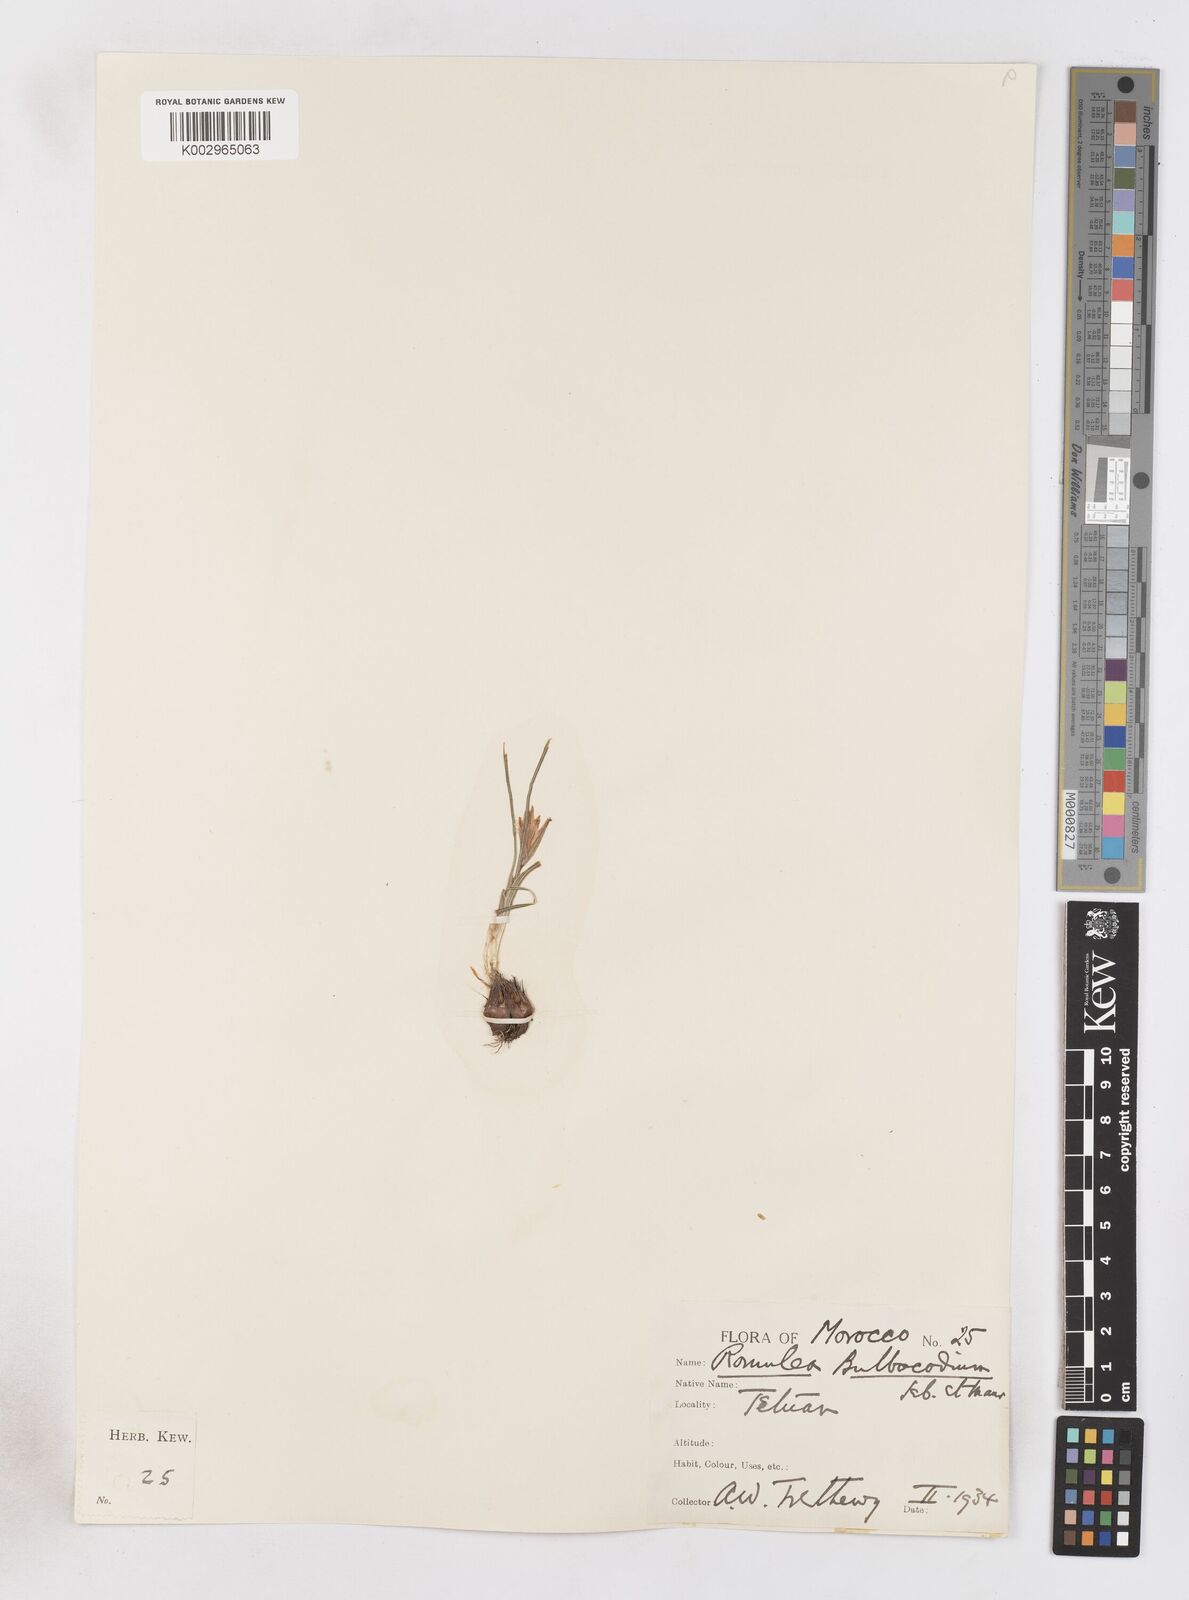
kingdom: Plantae
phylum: Tracheophyta
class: Liliopsida
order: Asparagales
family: Iridaceae
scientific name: Iridaceae
